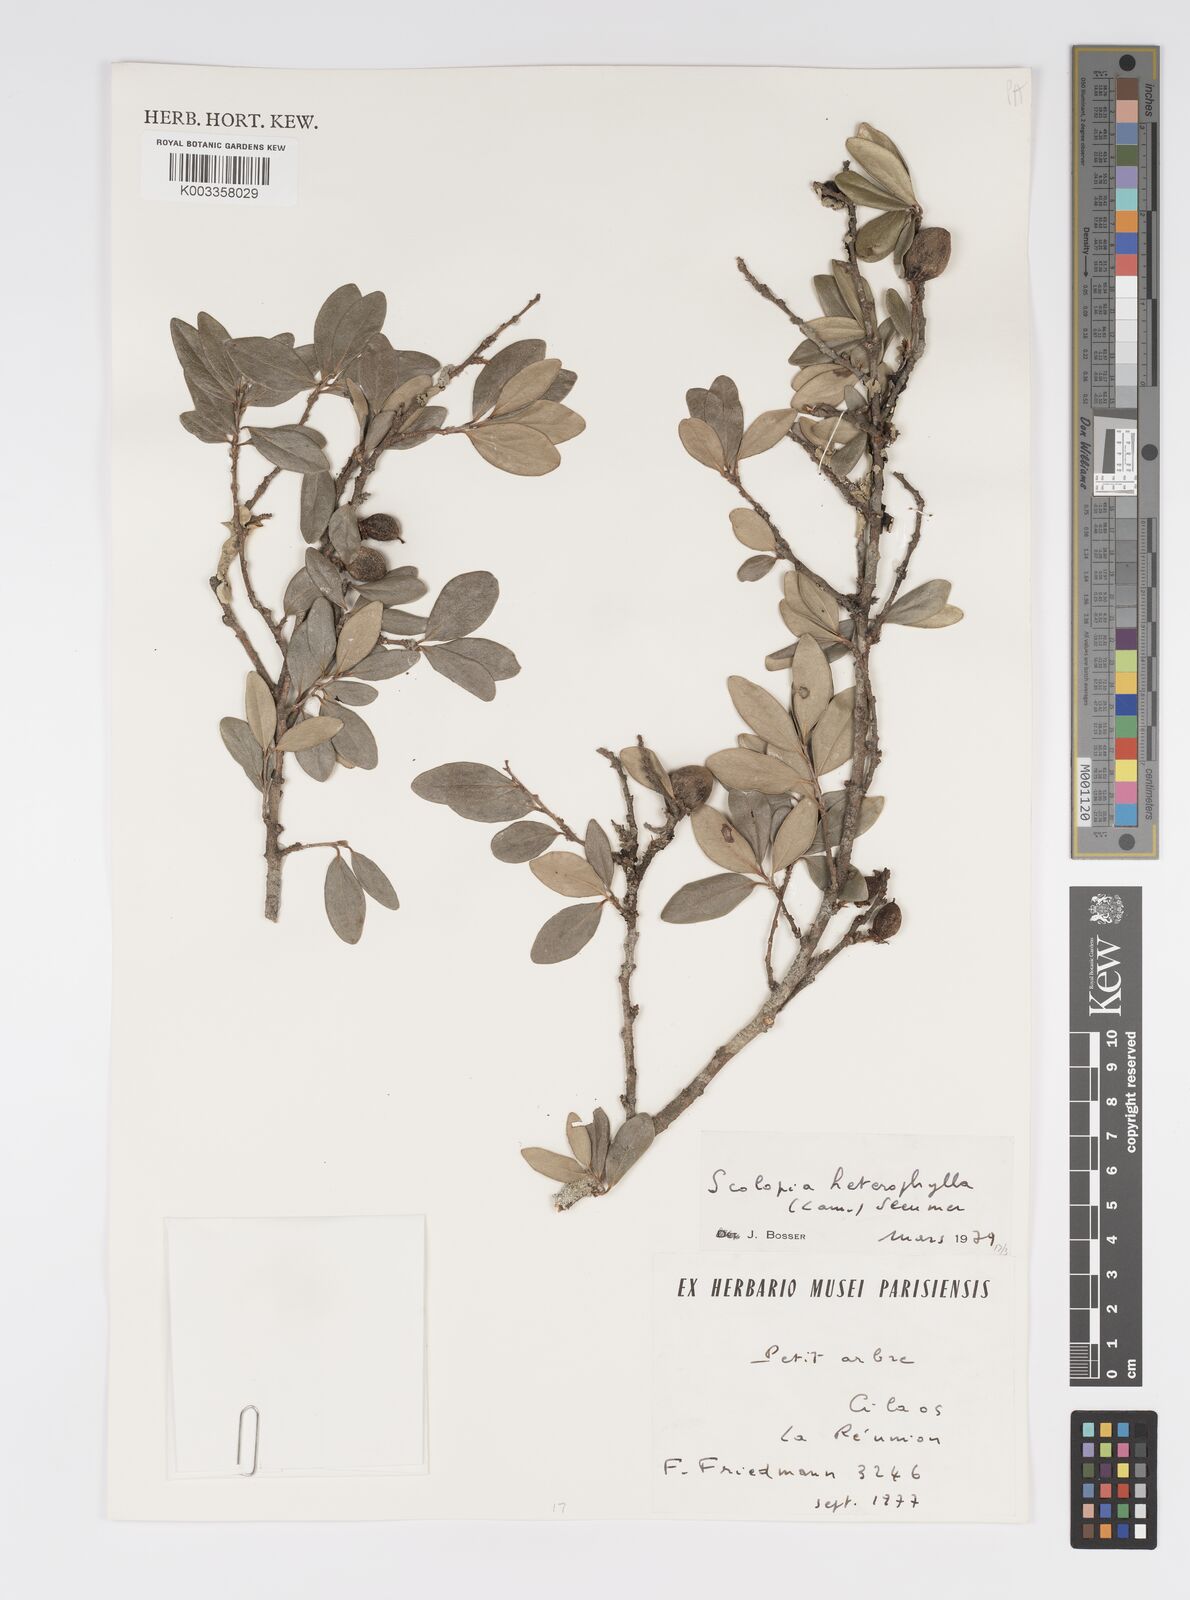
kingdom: Plantae
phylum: Tracheophyta
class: Magnoliopsida
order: Malpighiales
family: Salicaceae
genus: Scolopia
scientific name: Scolopia heterophylla
